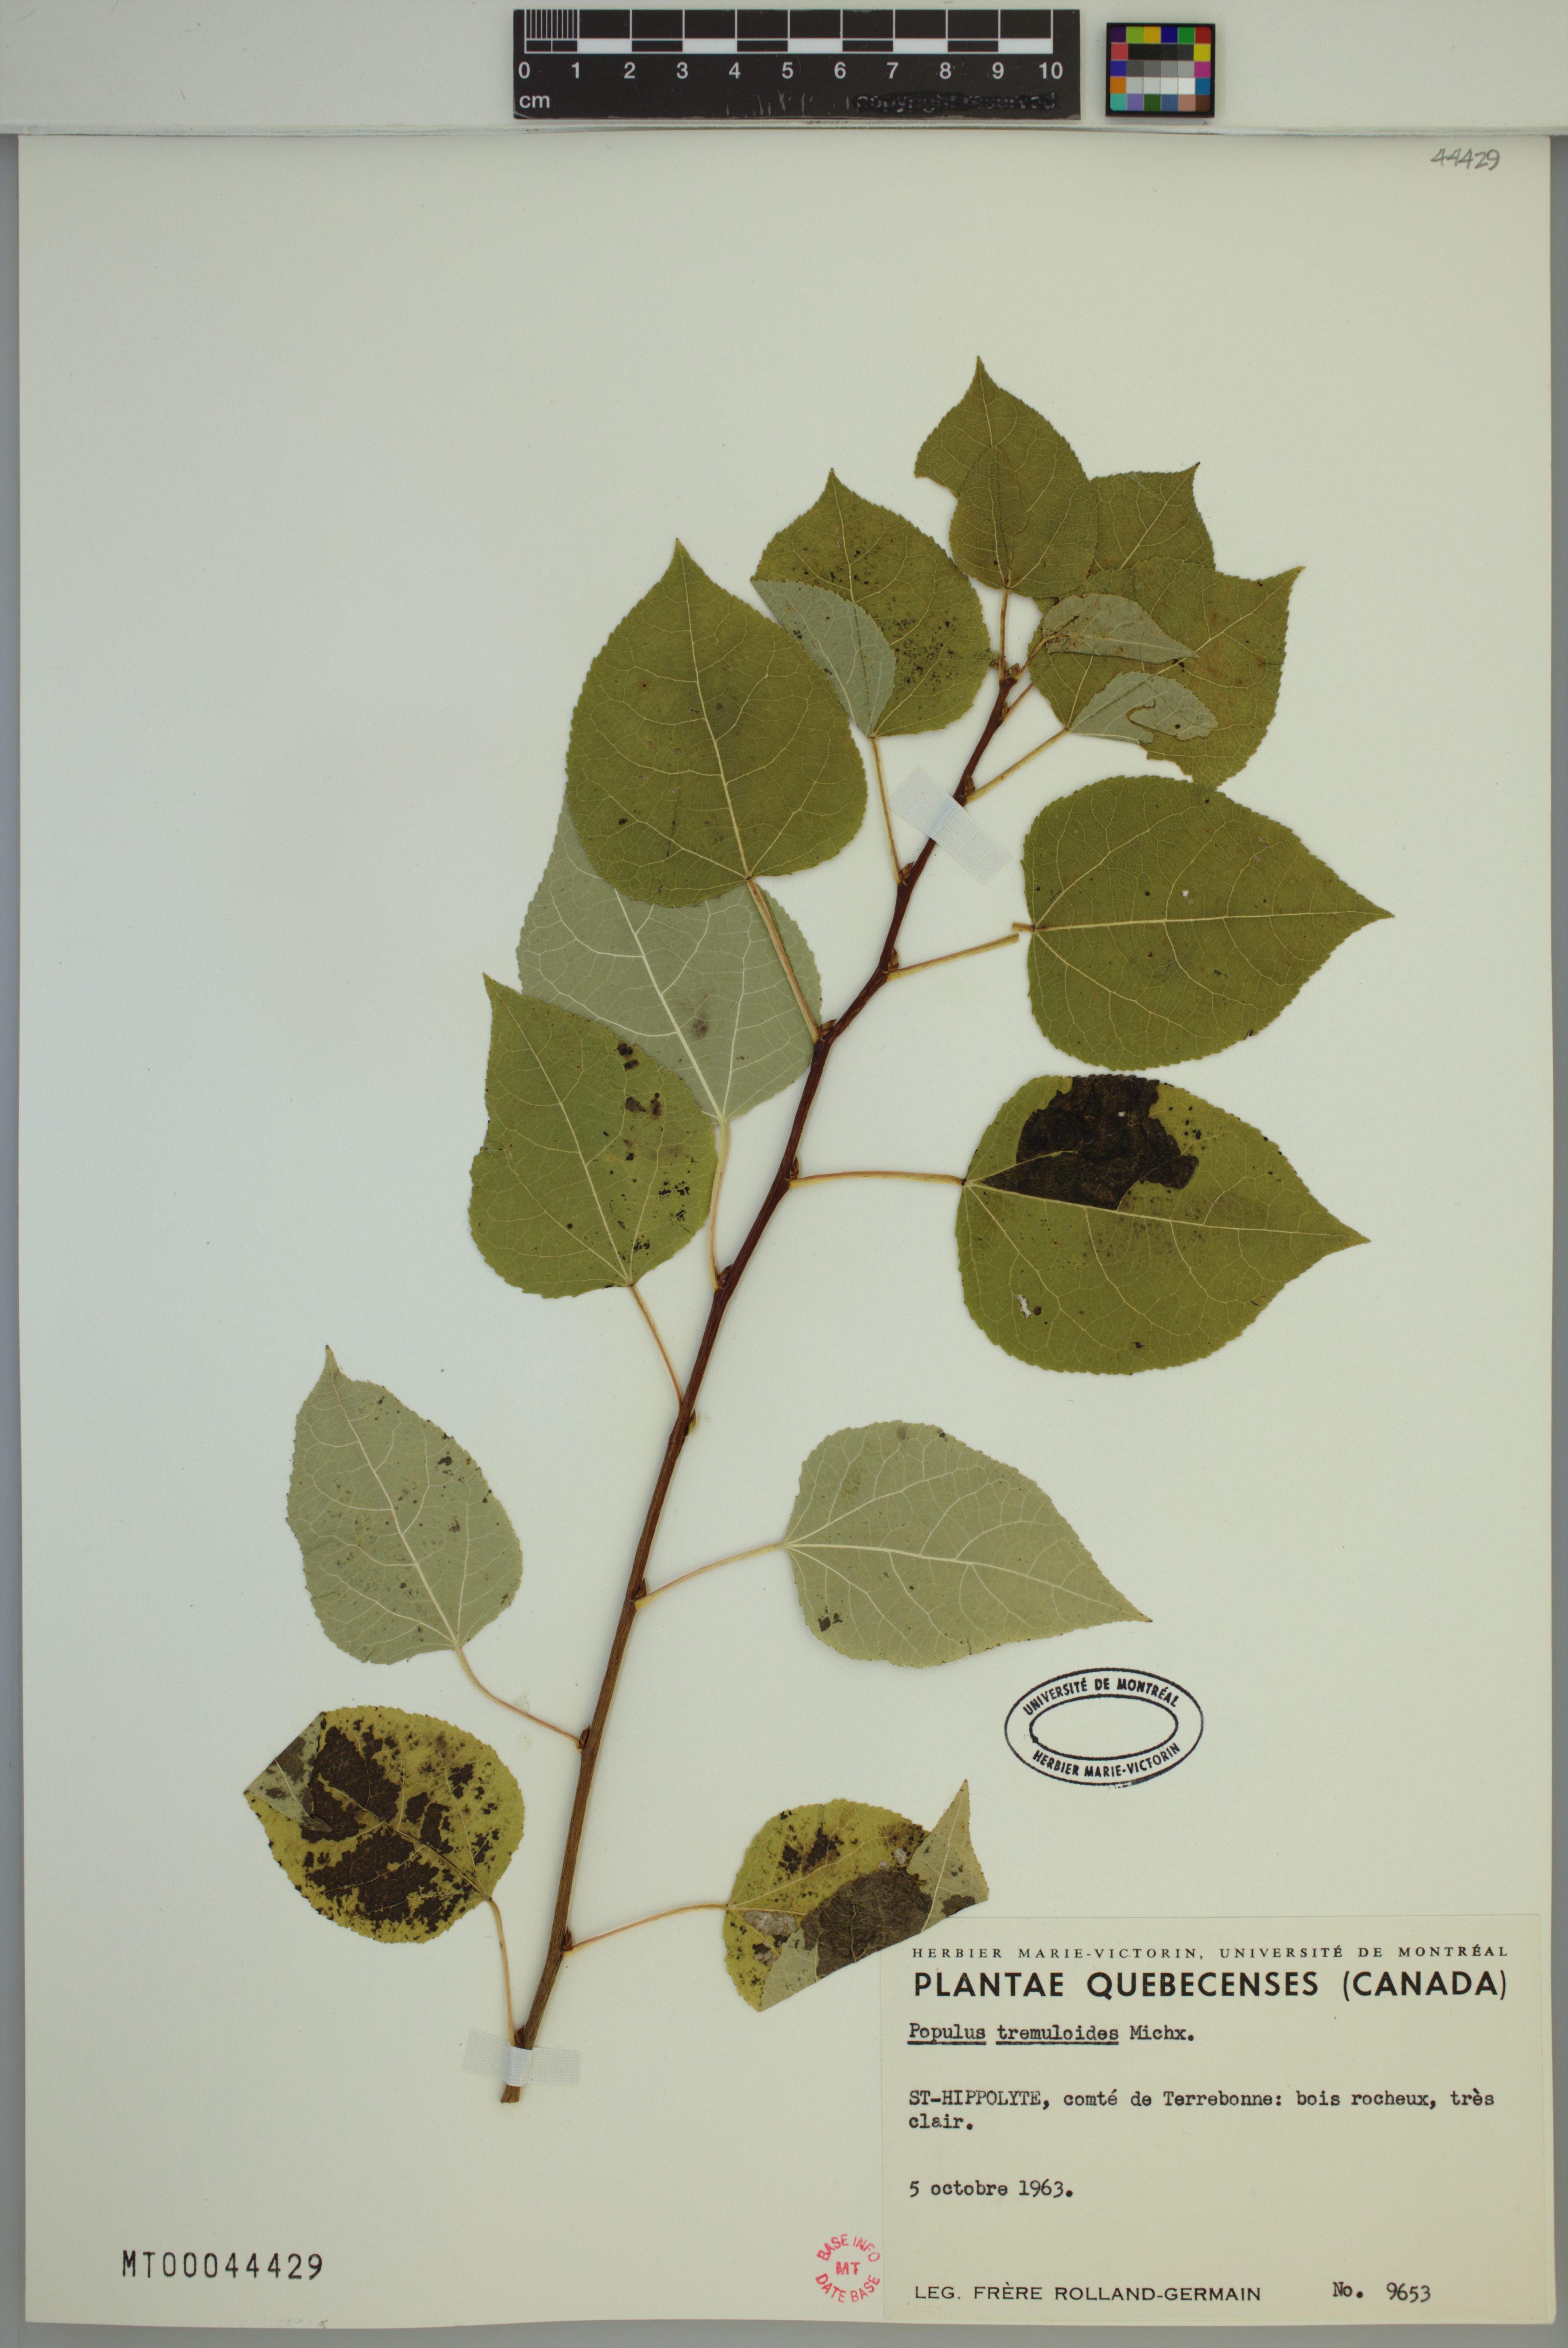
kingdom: Plantae
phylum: Tracheophyta
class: Magnoliopsida
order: Malpighiales
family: Salicaceae
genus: Populus
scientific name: Populus tremuloides
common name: Quaking aspen
